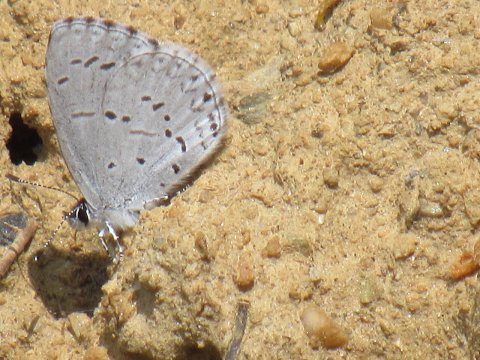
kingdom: Animalia
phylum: Arthropoda
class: Insecta
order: Lepidoptera
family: Lycaenidae
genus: Celastrina
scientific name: Celastrina lucia
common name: Northern Spring Azure
